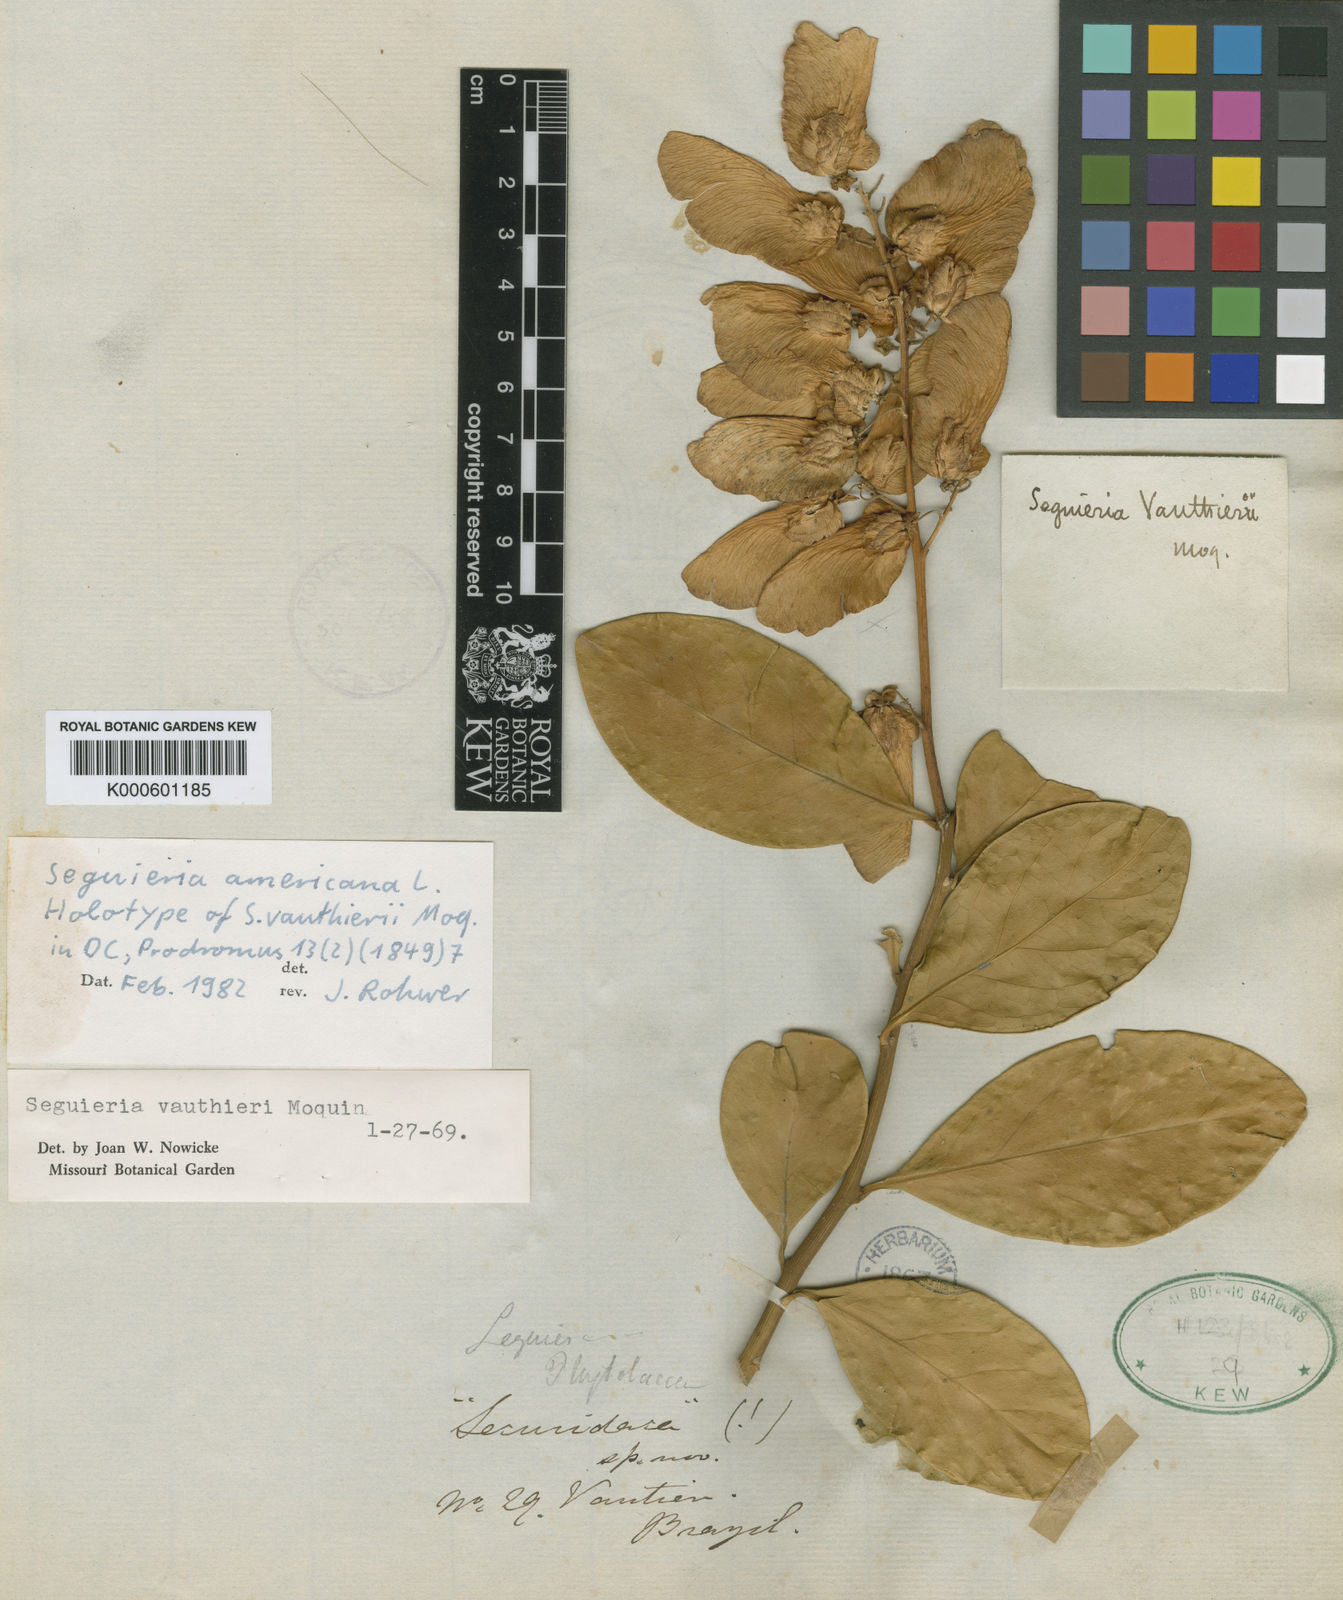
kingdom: Plantae
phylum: Tracheophyta
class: Magnoliopsida
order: Caryophyllales
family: Phytolaccaceae
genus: Seguieria
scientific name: Seguieria americana
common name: American seguieria
